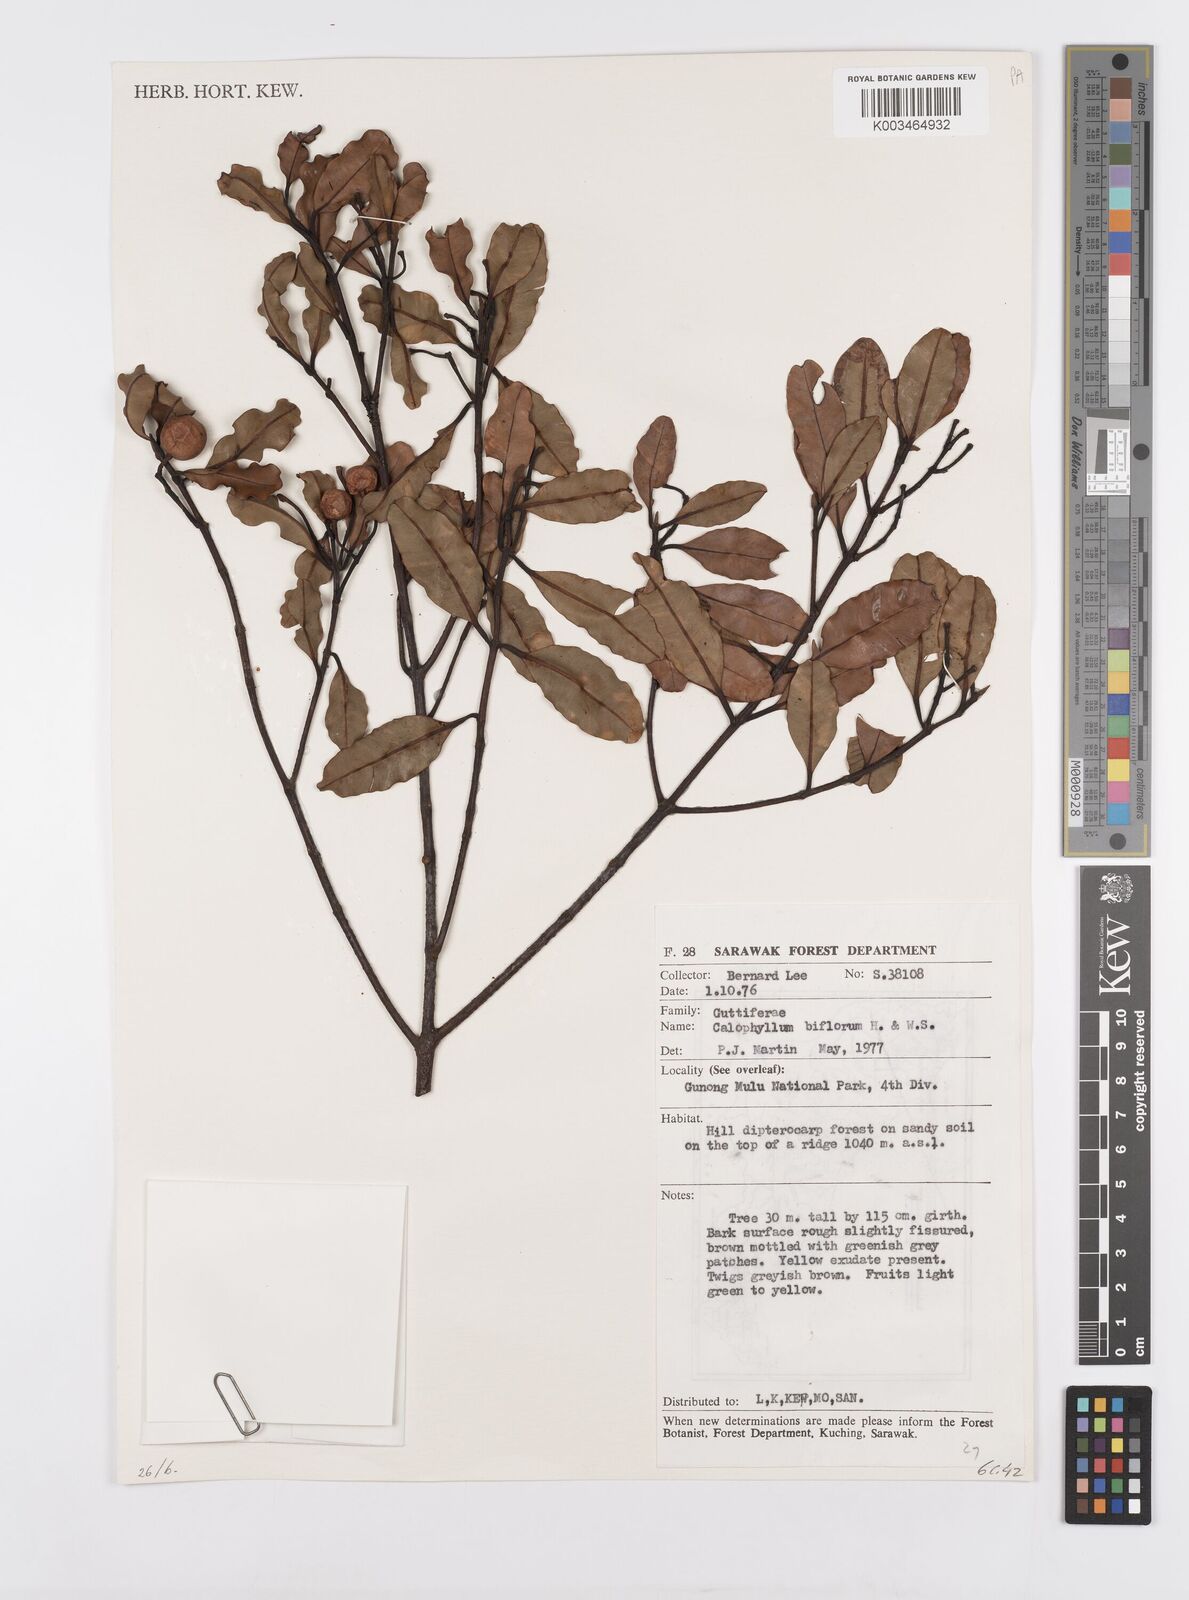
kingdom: Plantae
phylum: Tracheophyta
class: Magnoliopsida
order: Malpighiales
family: Calophyllaceae
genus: Calophyllum
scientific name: Calophyllum biflorum
